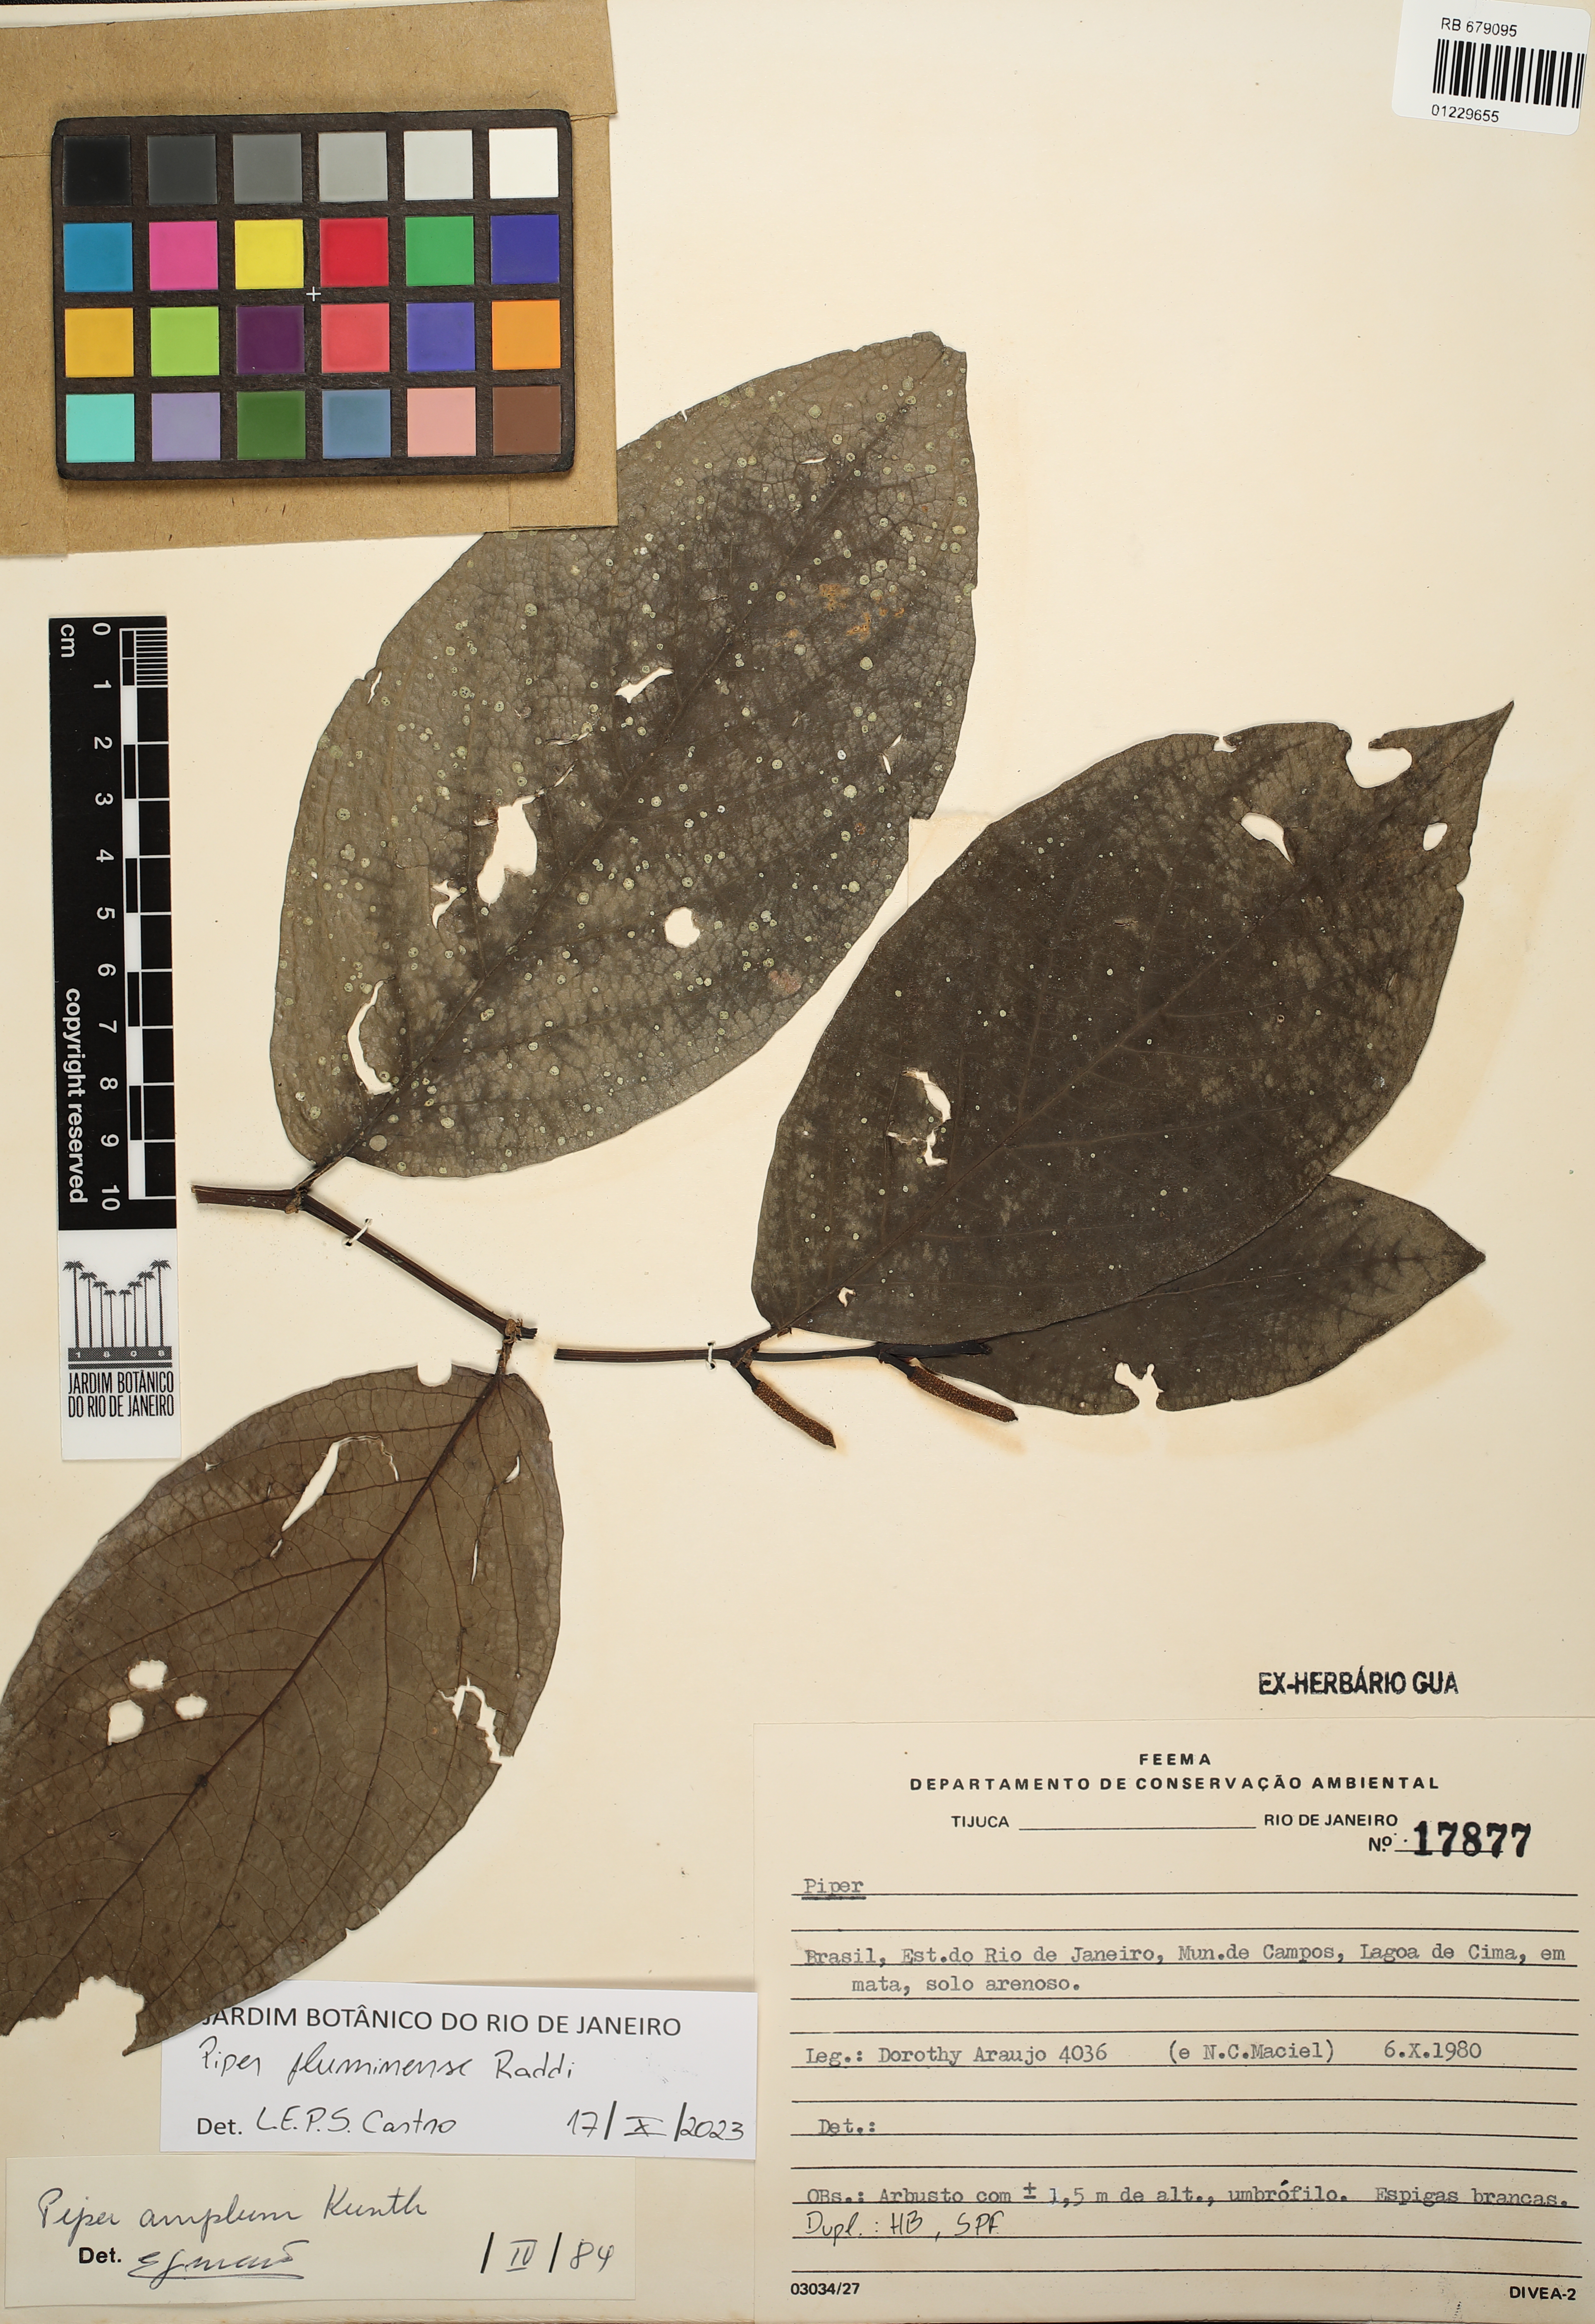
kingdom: Plantae
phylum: Tracheophyta
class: Magnoliopsida
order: Piperales
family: Piperaceae
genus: Piper
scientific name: Piper fluminense
